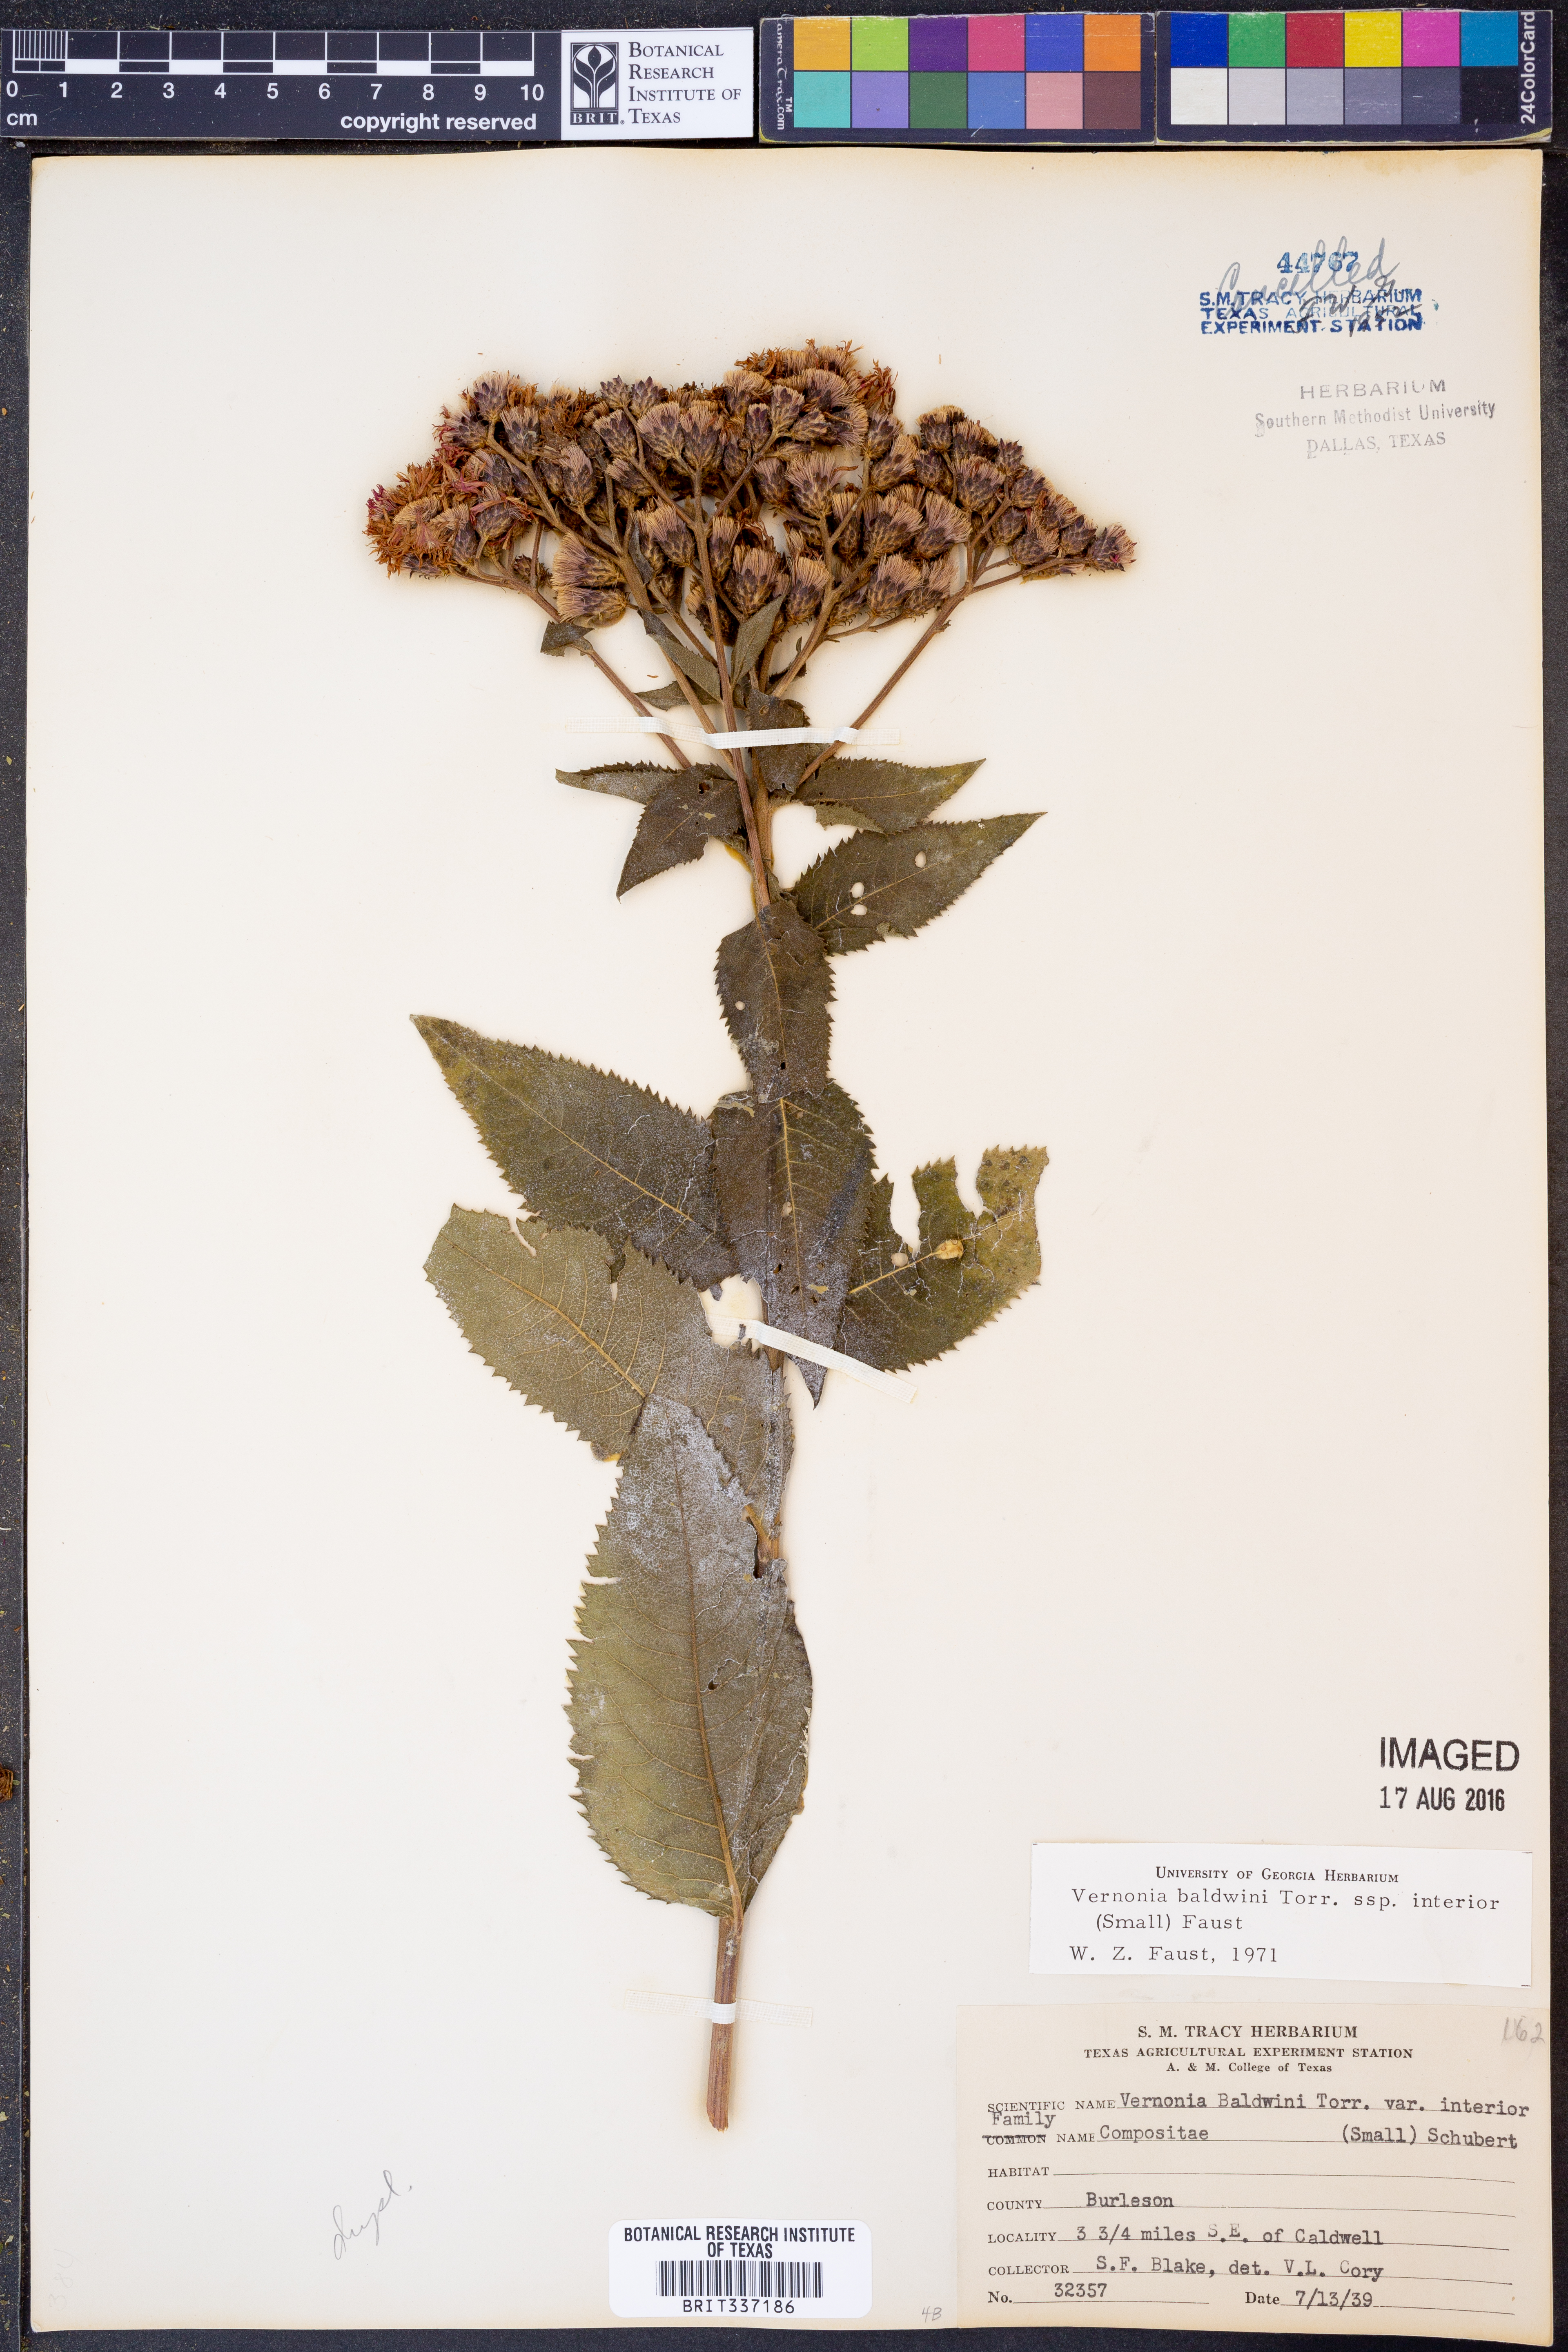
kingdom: Plantae
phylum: Tracheophyta
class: Magnoliopsida
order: Asterales
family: Asteraceae
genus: Vernonia
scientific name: Vernonia baldwinii
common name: Western ironweed
